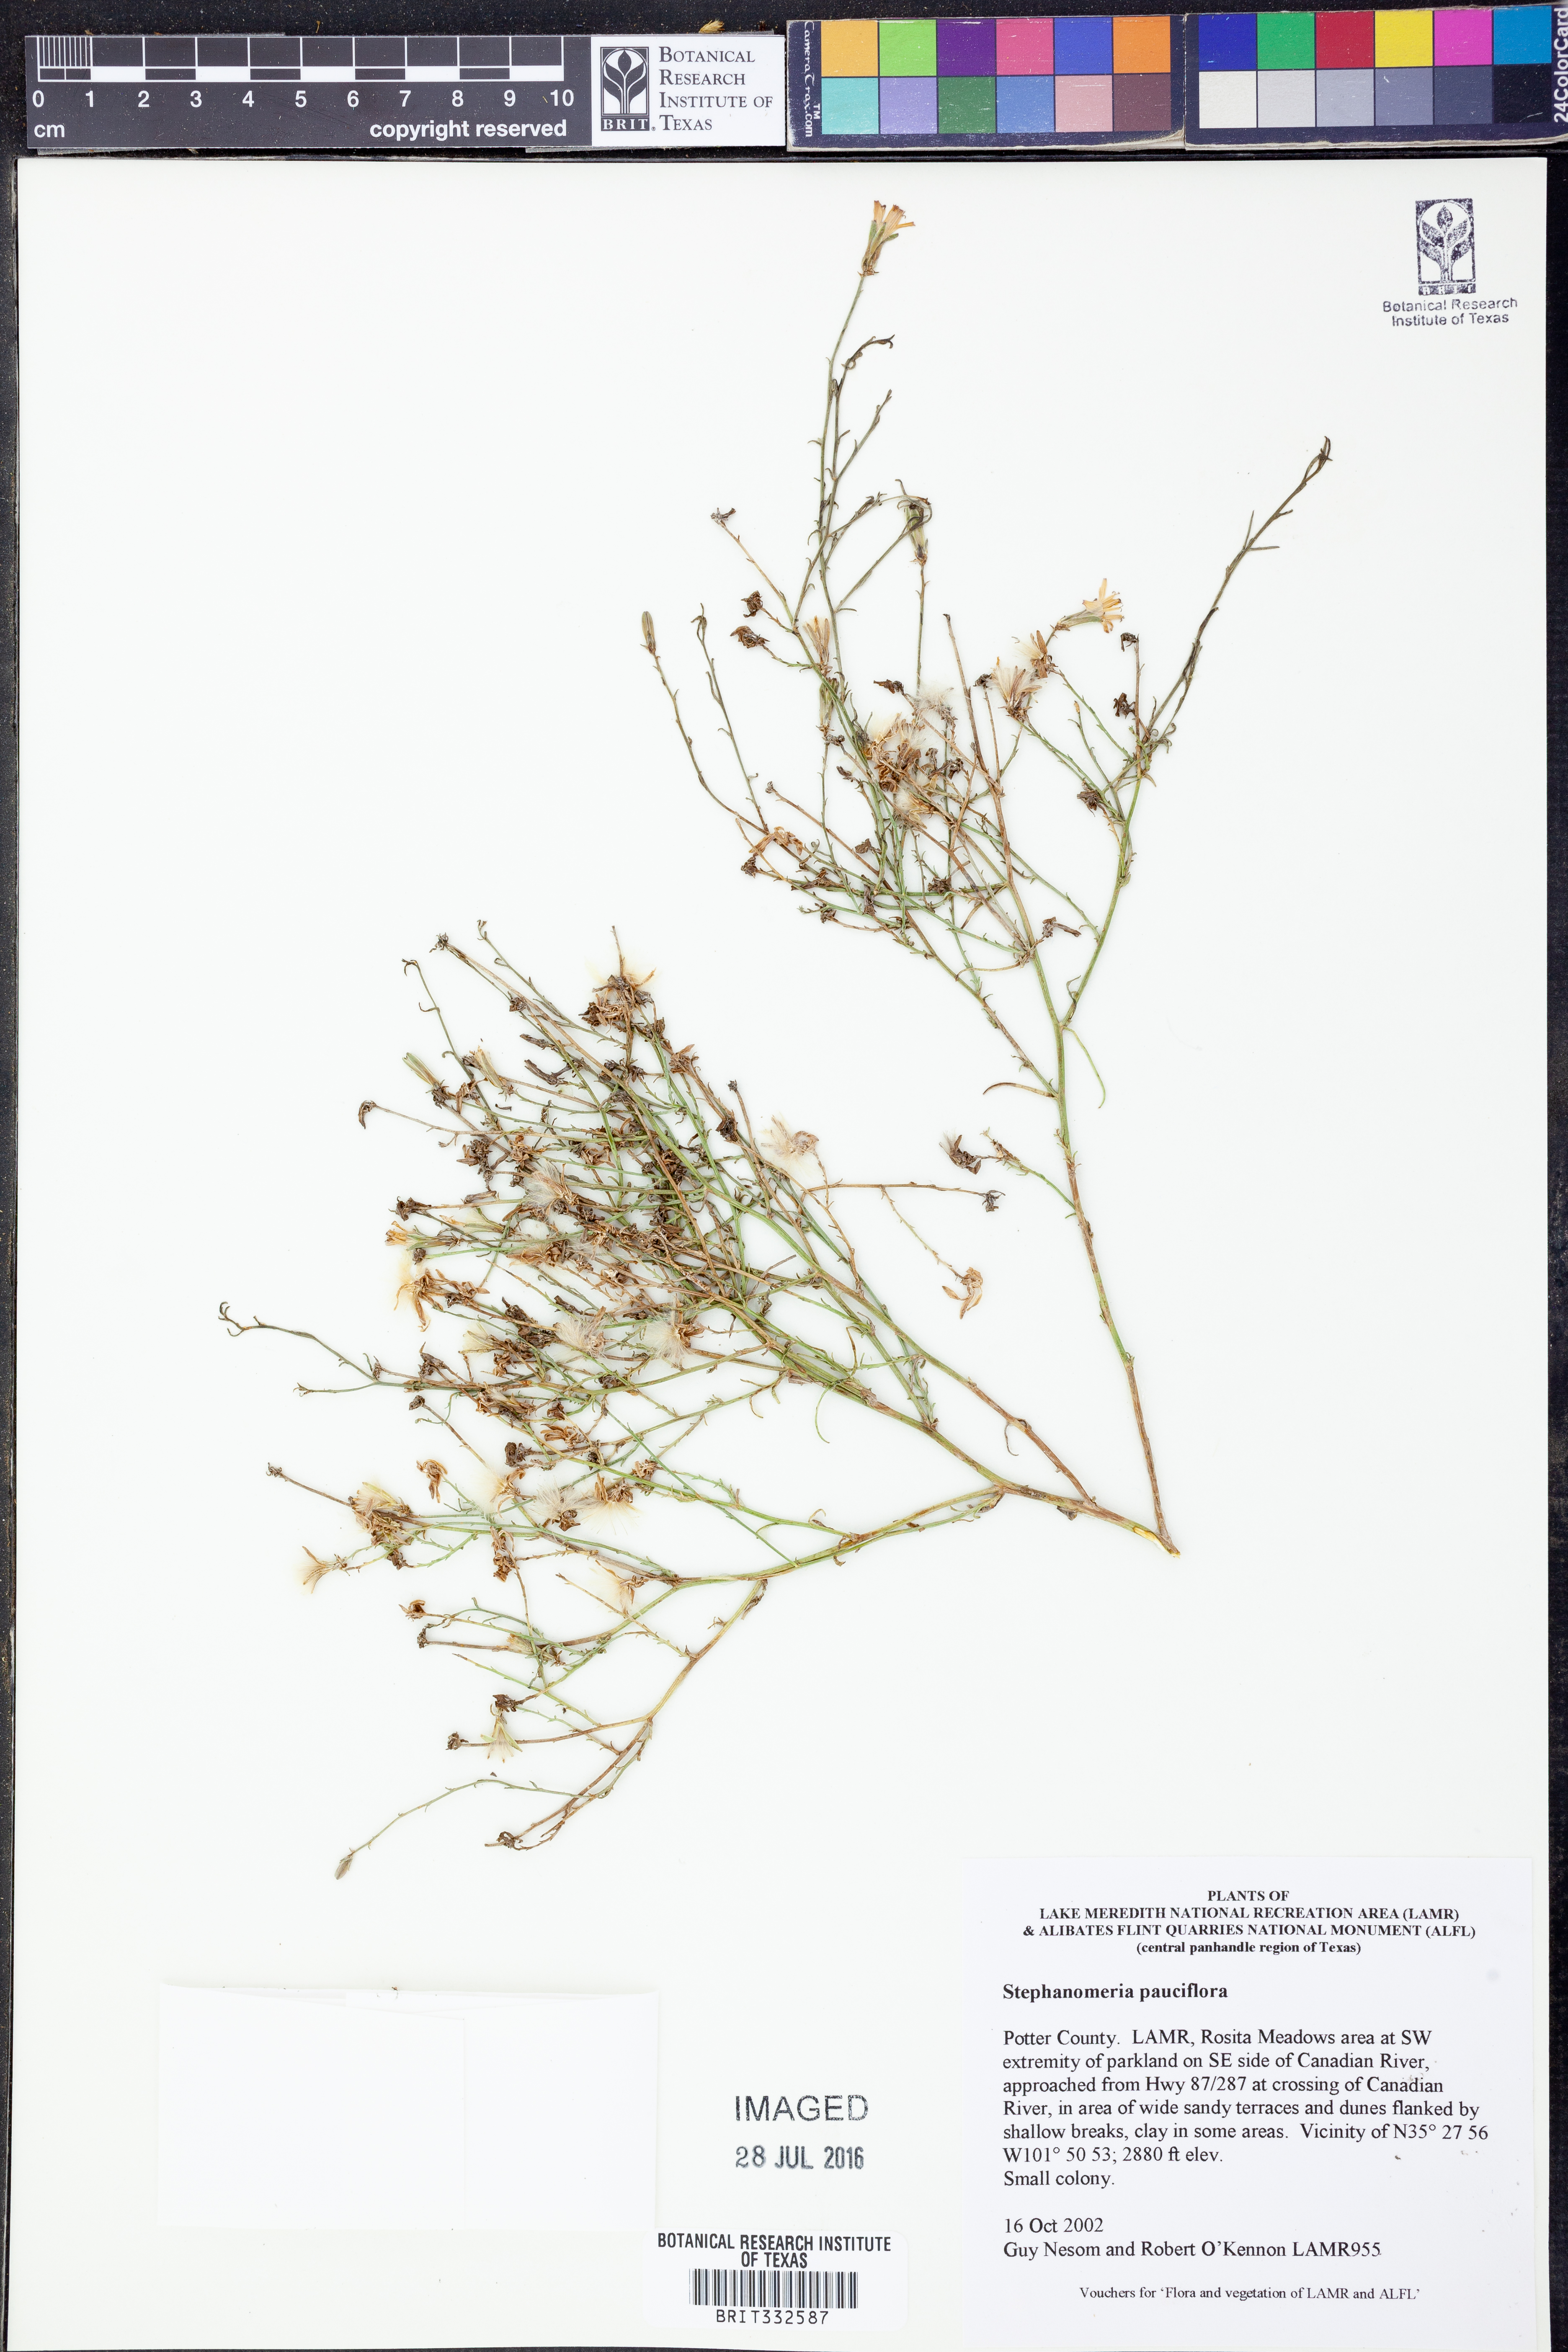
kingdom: Plantae
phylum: Tracheophyta
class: Magnoliopsida
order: Asterales
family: Asteraceae
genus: Stephanomeria
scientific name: Stephanomeria pauciflora
